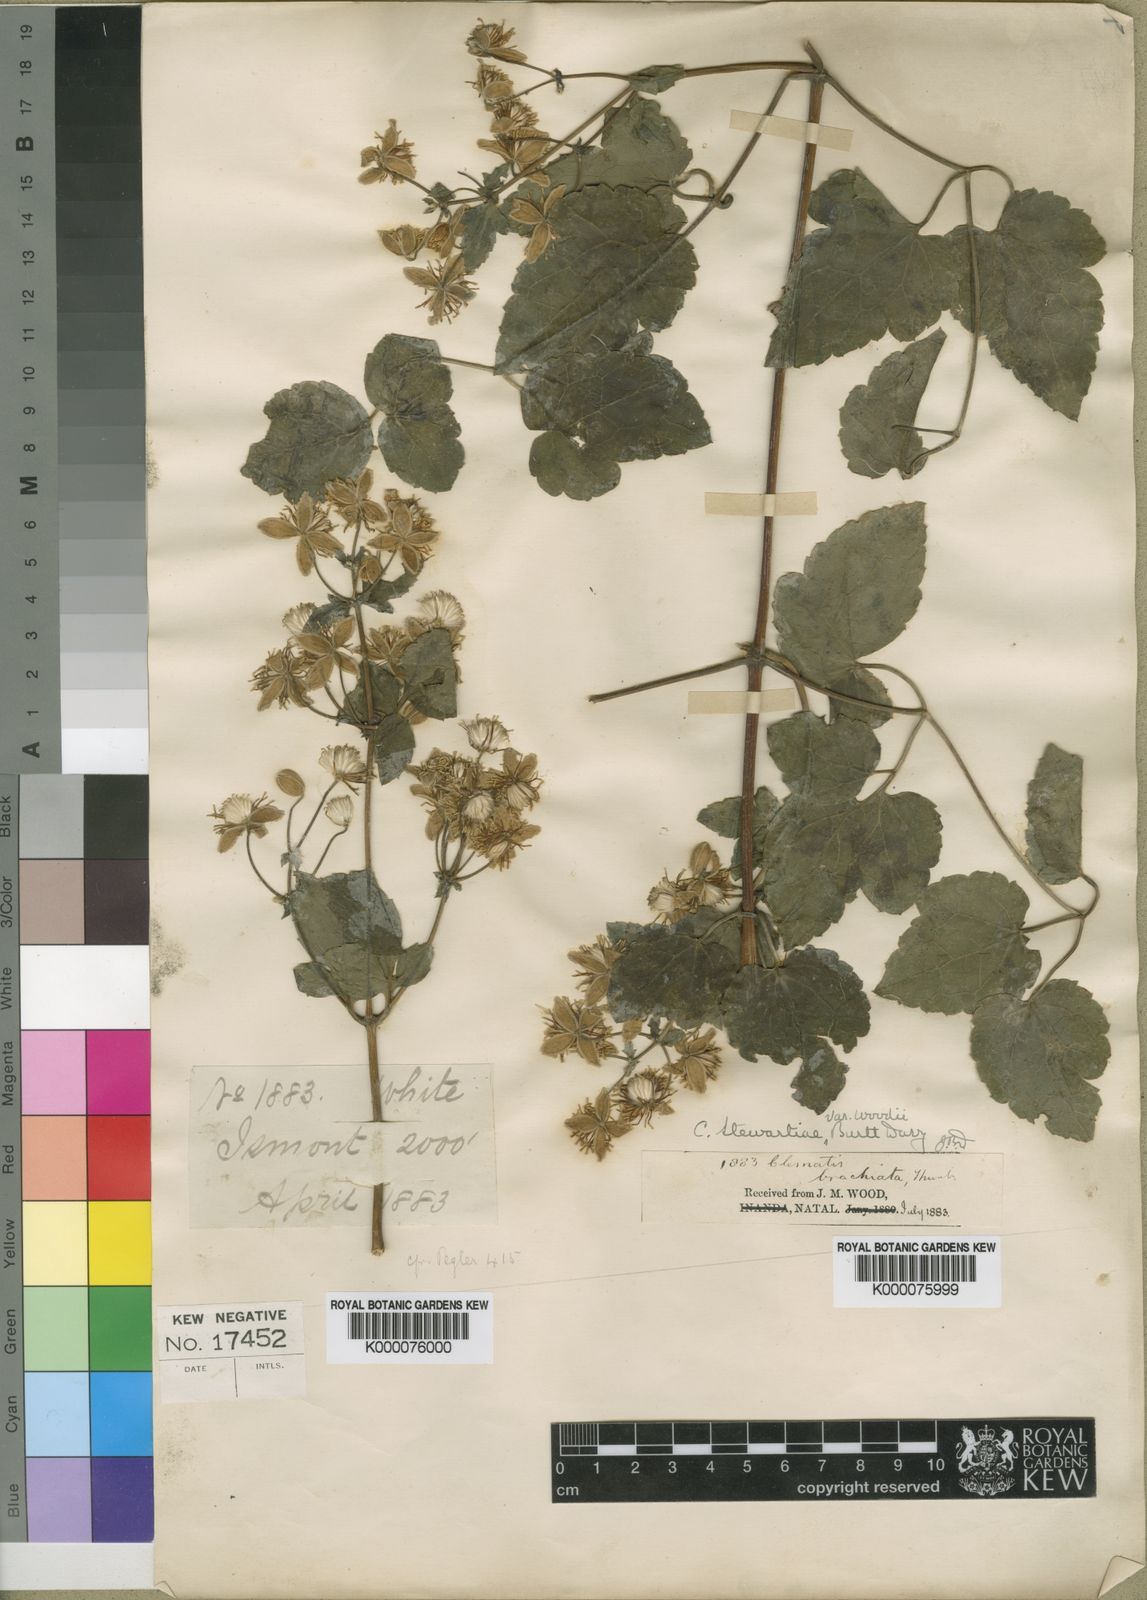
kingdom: Plantae
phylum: Tracheophyta
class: Magnoliopsida
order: Ranunculales
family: Ranunculaceae
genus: Clematis
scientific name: Clematis stewartiae
